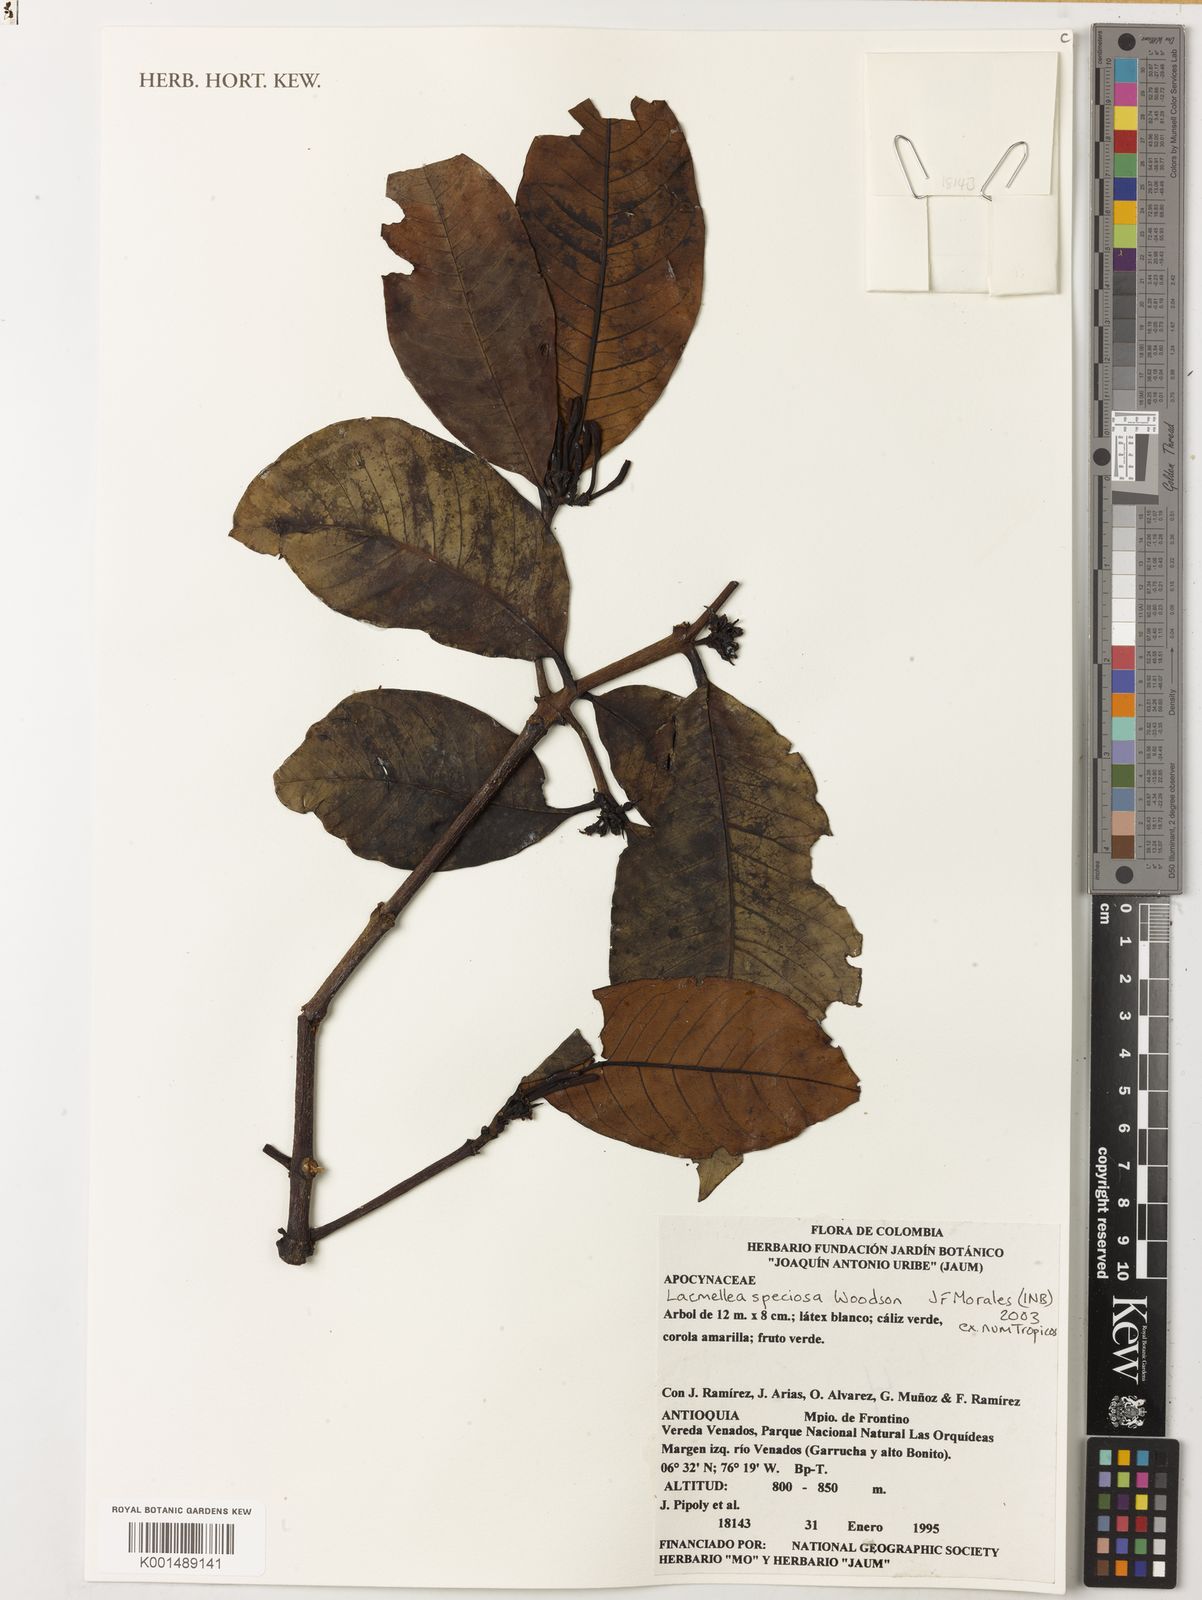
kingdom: Plantae
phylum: Tracheophyta
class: Magnoliopsida
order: Gentianales
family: Apocynaceae
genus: Lacmellea
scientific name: Lacmellea speciosa
